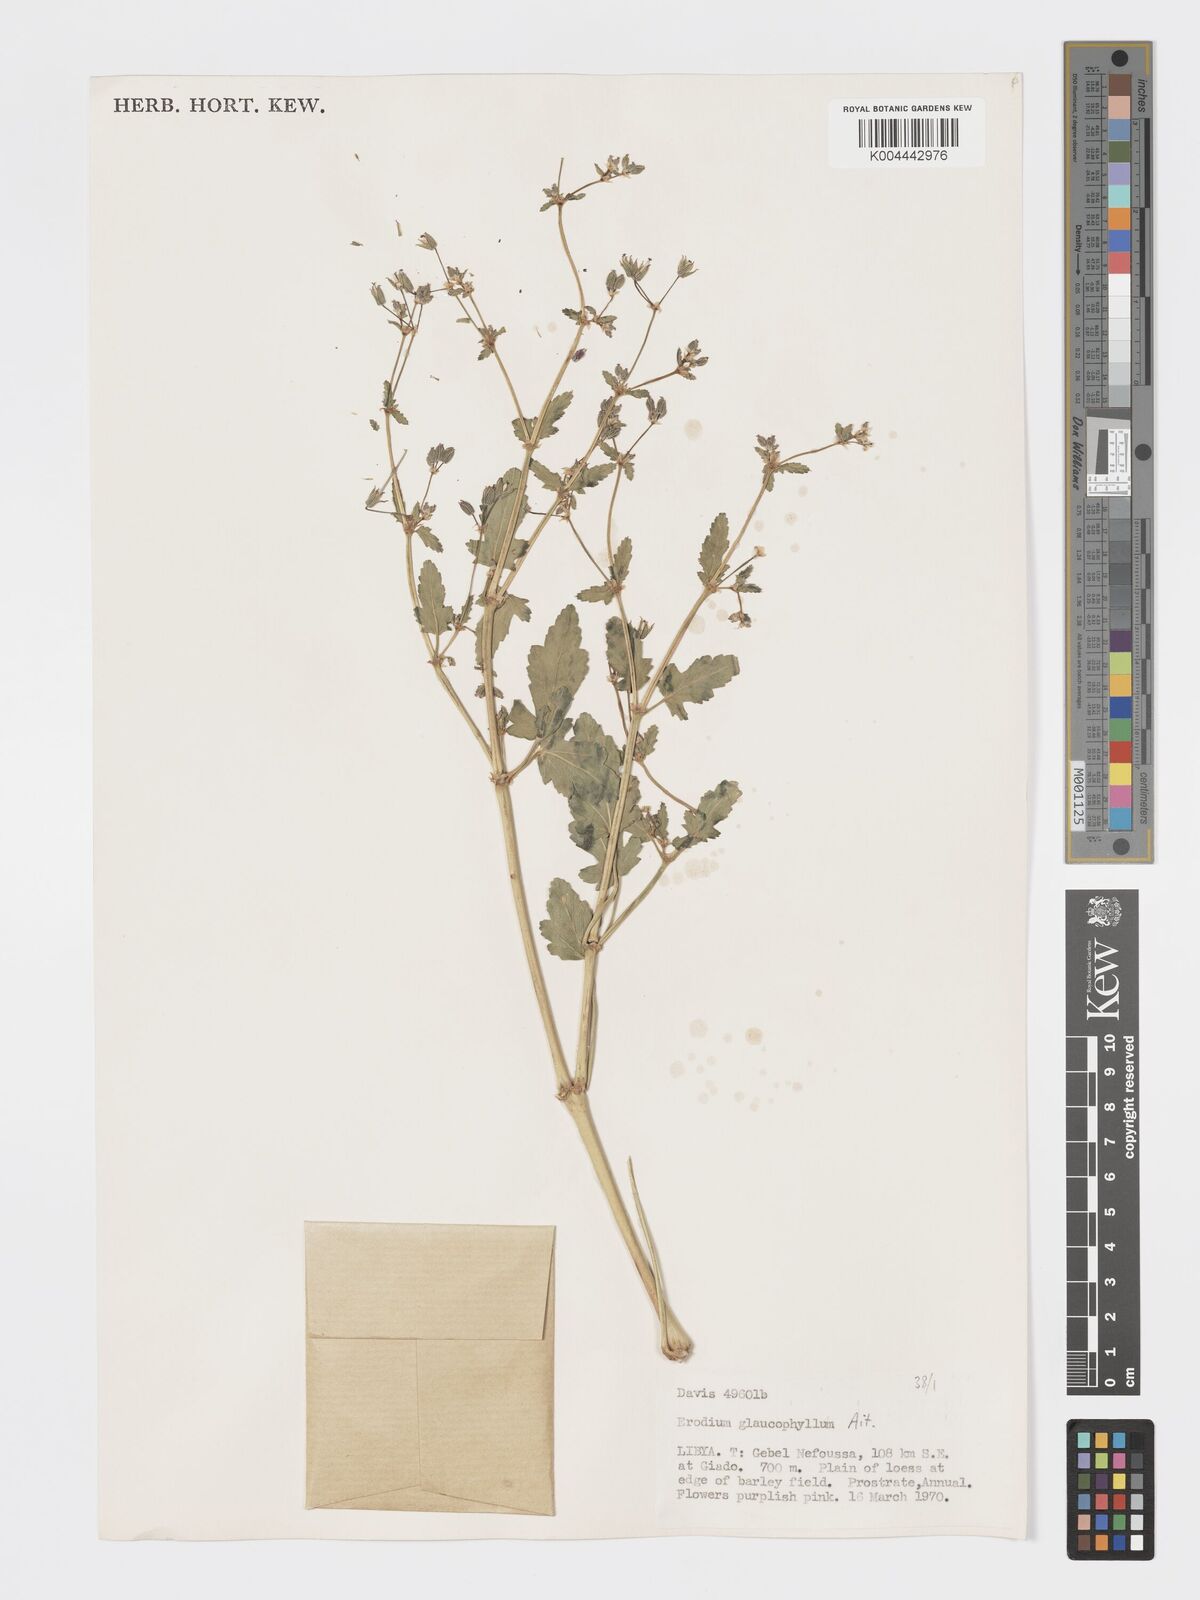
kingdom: Plantae
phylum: Tracheophyta
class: Magnoliopsida
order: Geraniales
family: Geraniaceae
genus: Erodium
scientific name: Erodium glaucophyllum
